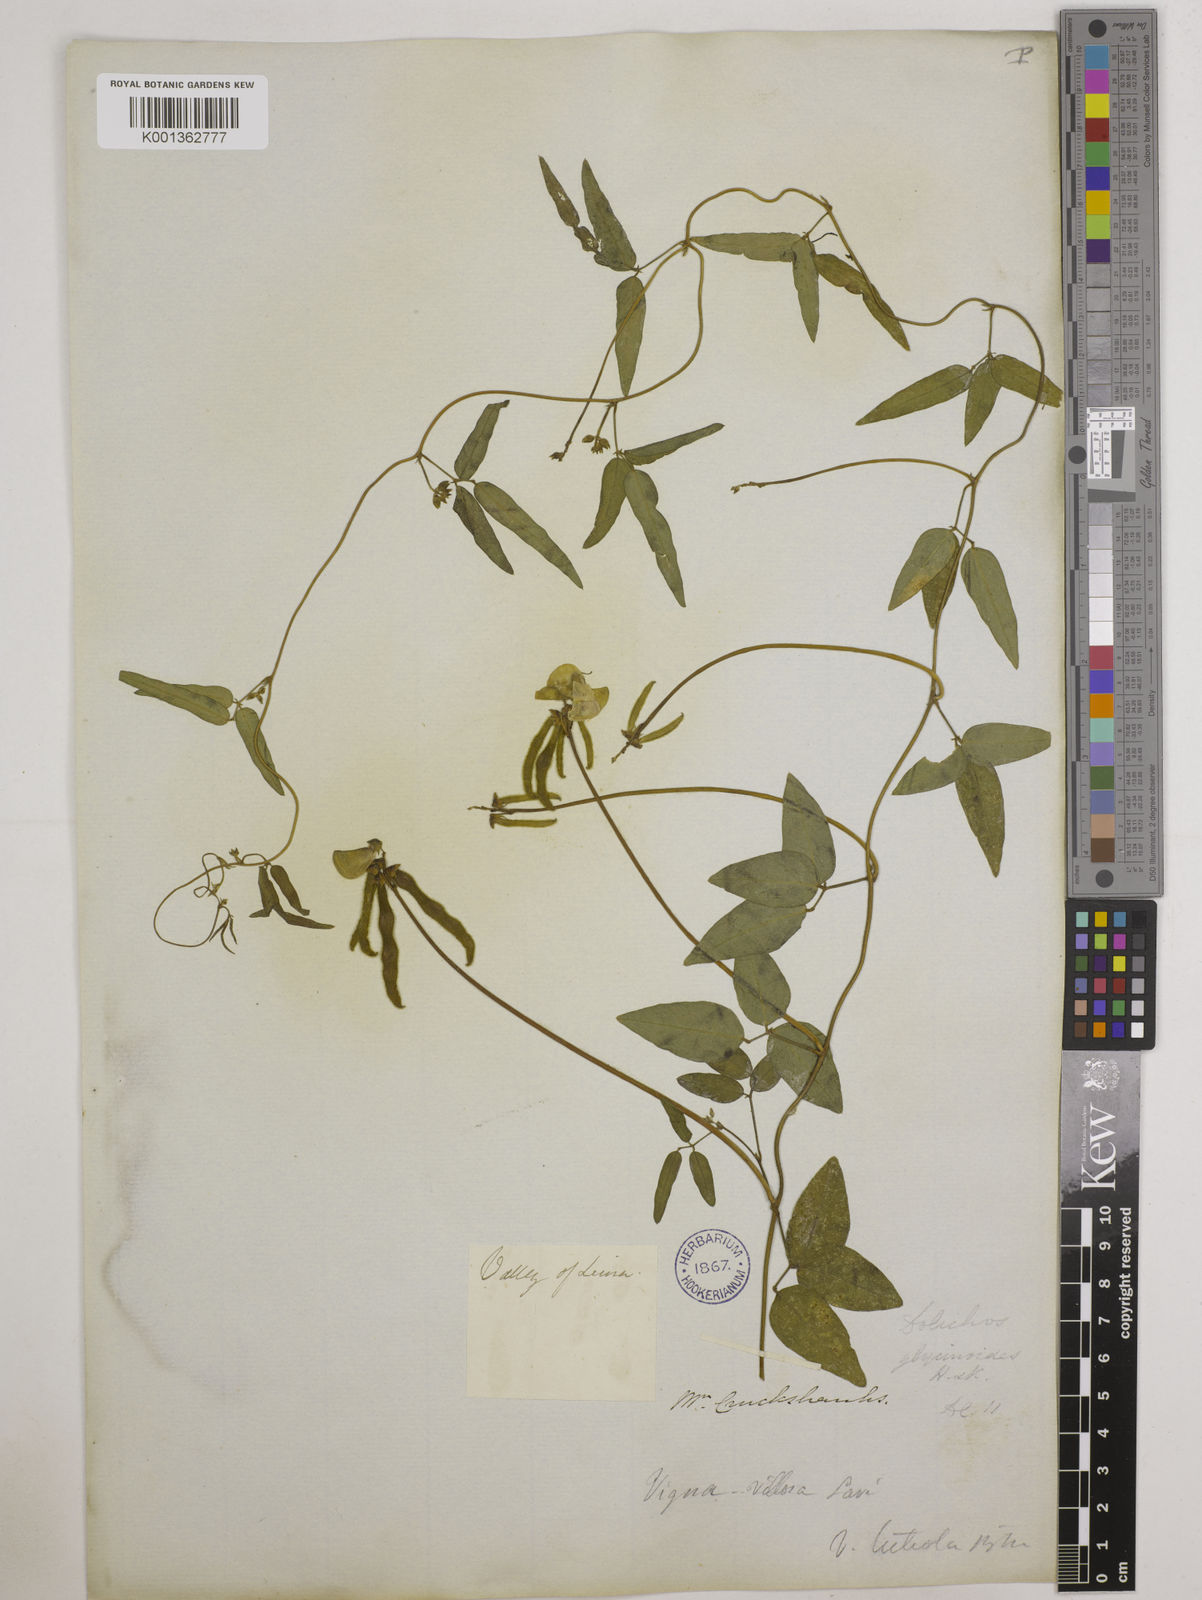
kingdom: Plantae
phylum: Tracheophyta
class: Magnoliopsida
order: Fabales
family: Fabaceae
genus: Vigna
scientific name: Vigna luteola
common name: Hairypod cowpea
